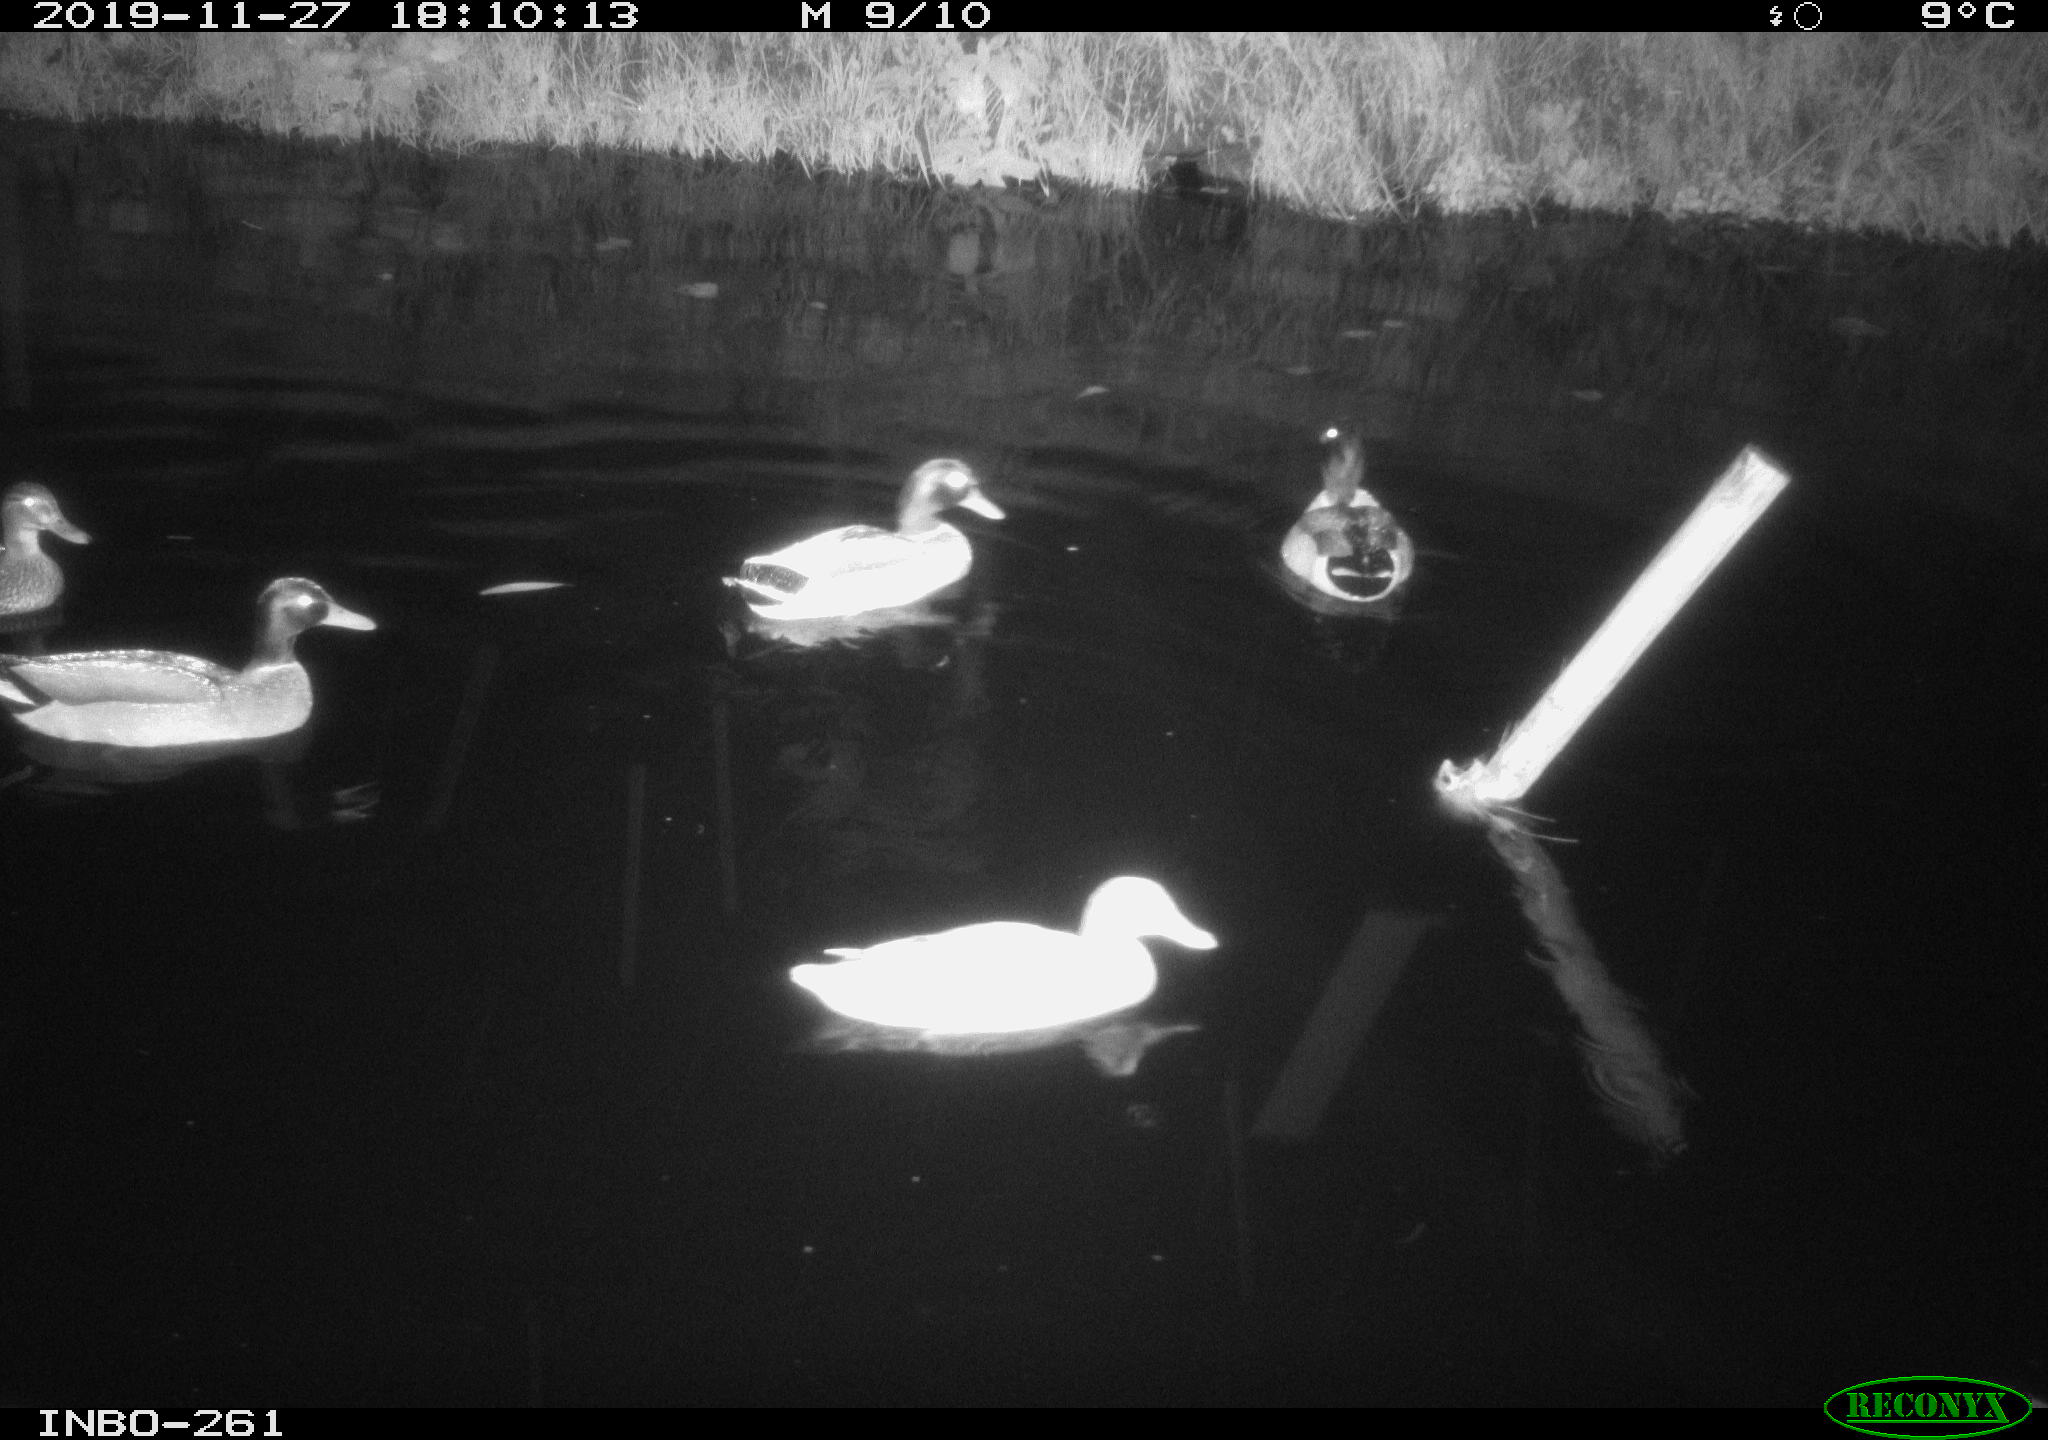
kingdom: Animalia
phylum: Chordata
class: Aves
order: Anseriformes
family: Anatidae
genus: Anas
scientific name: Anas platyrhynchos
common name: Mallard
